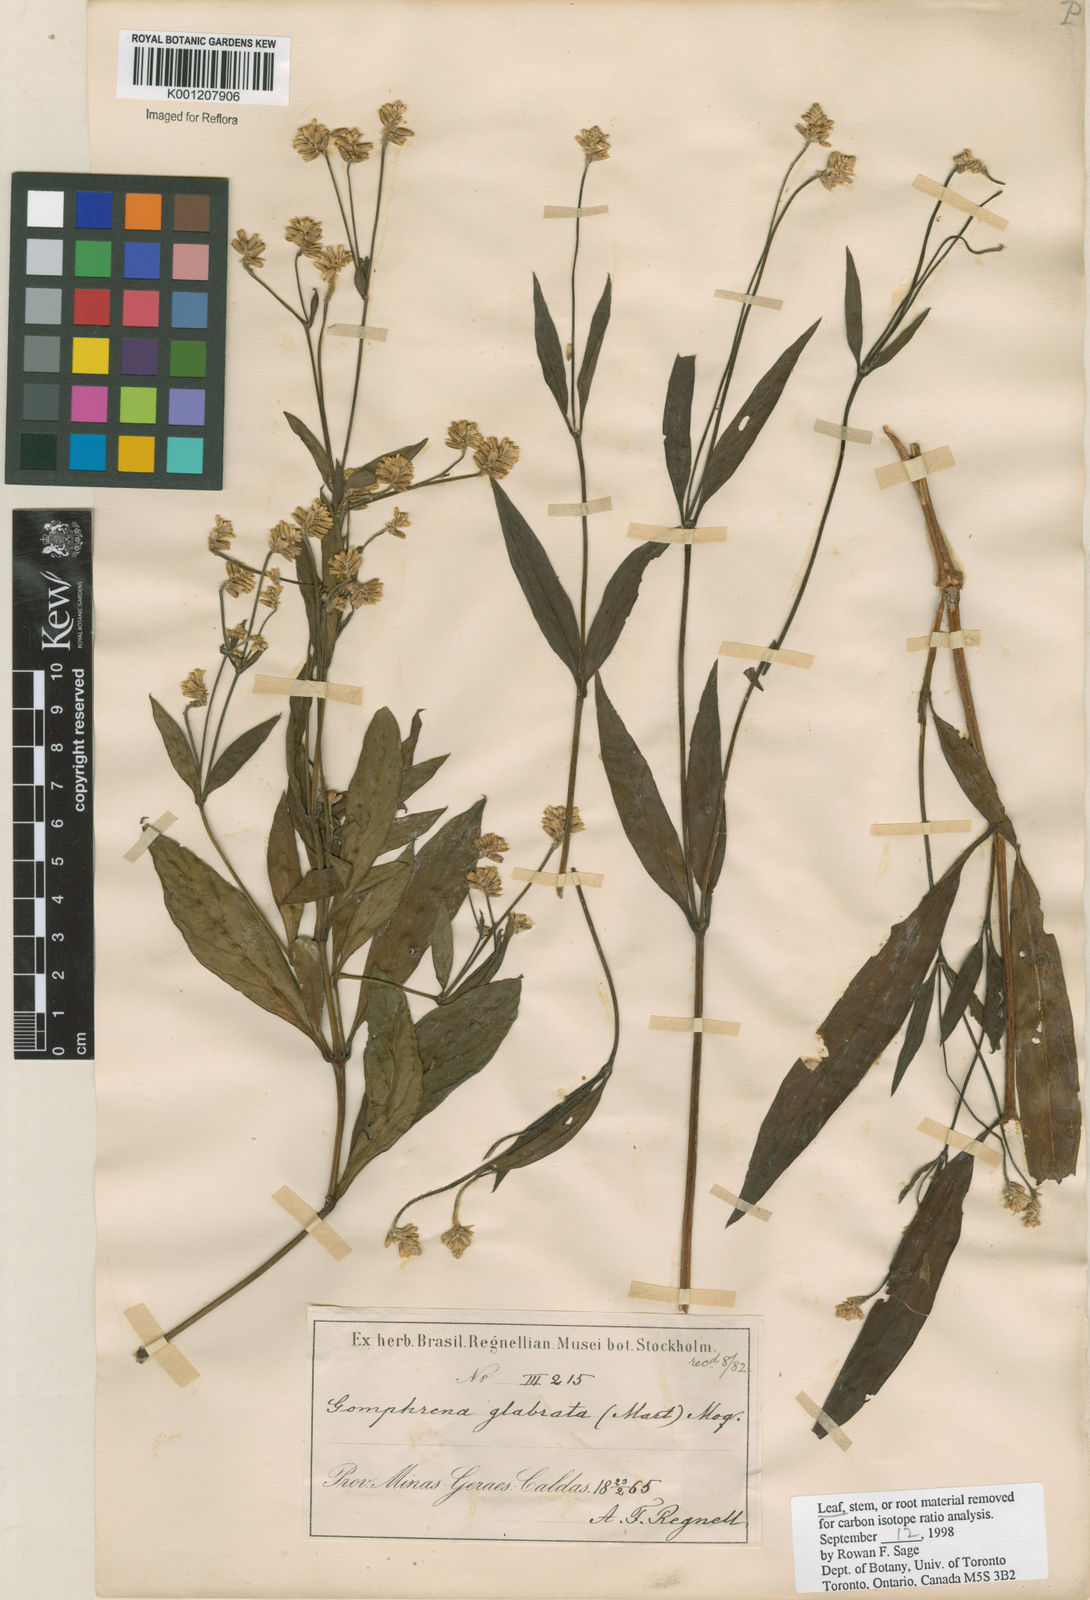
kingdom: Plantae
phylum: Tracheophyta
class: Magnoliopsida
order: Caryophyllales
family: Amaranthaceae
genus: Pfaffia
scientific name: Pfaffia glabrata
